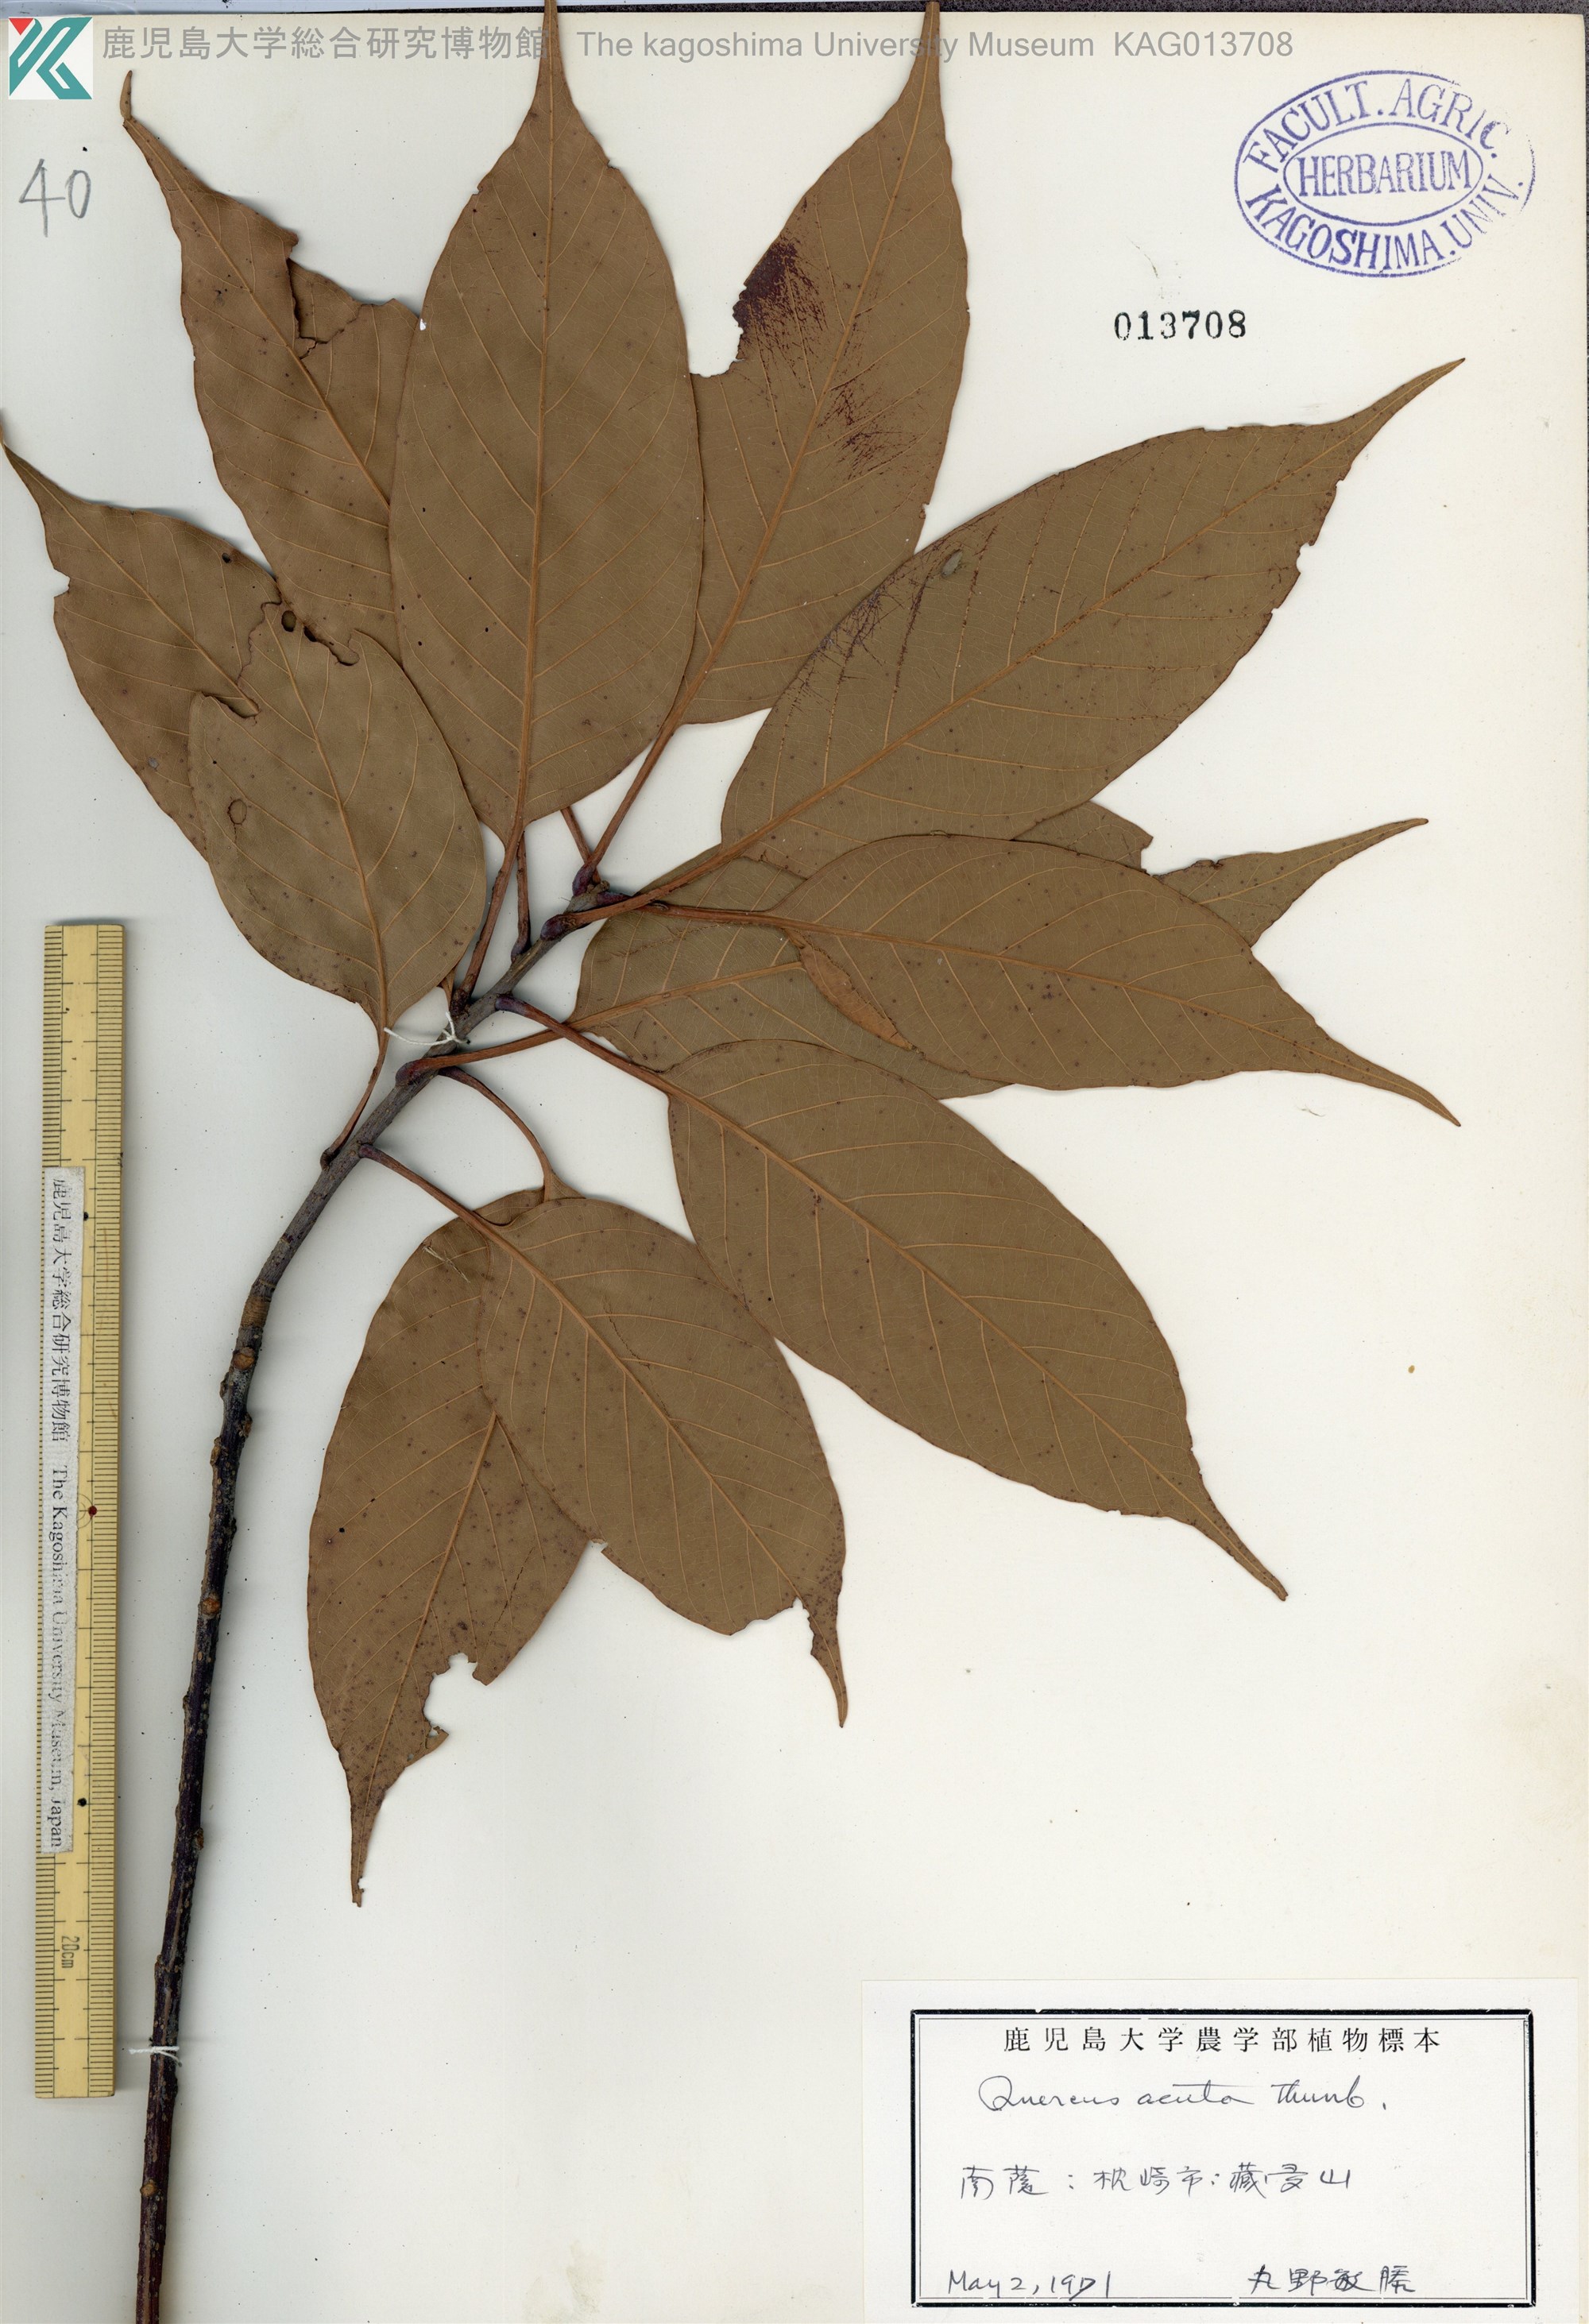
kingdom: Plantae
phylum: Tracheophyta
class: Magnoliopsida
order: Fagales
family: Fagaceae
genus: Quercus
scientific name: Quercus acuta
